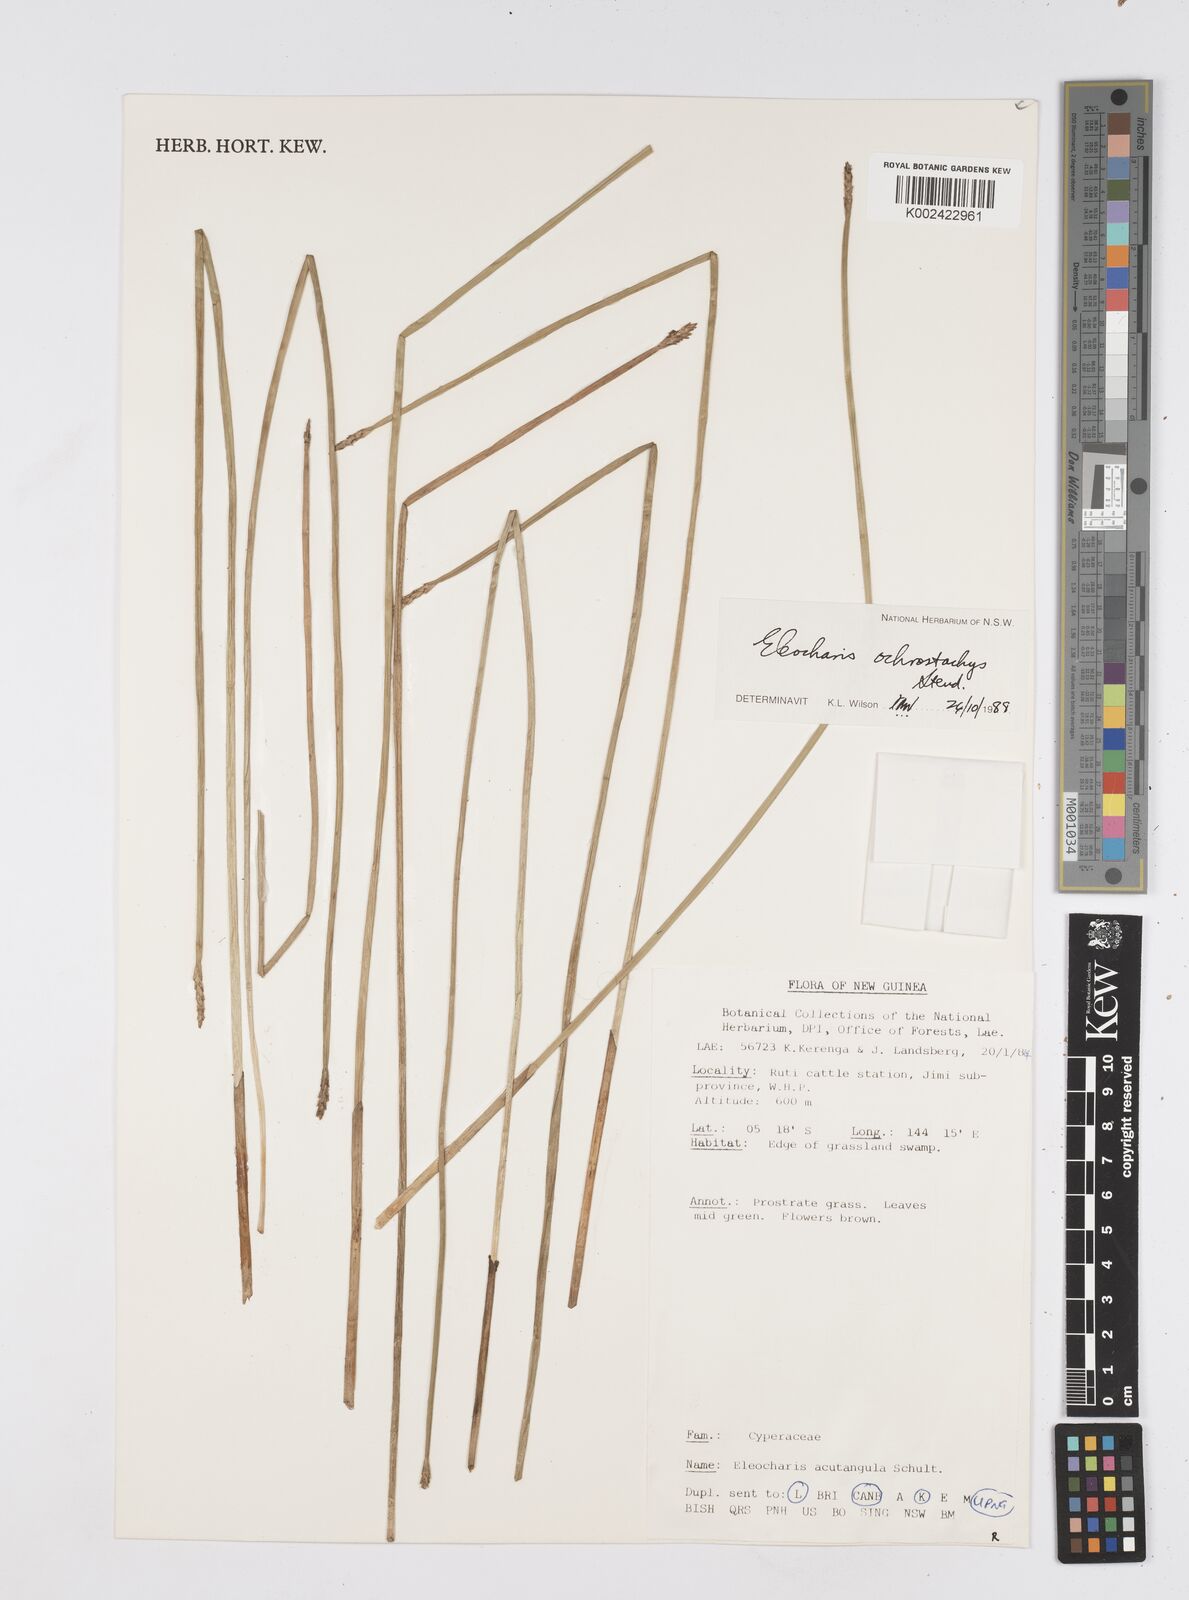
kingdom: Plantae
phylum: Tracheophyta
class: Liliopsida
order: Poales
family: Cyperaceae
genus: Eleocharis
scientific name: Eleocharis ochrostachys
